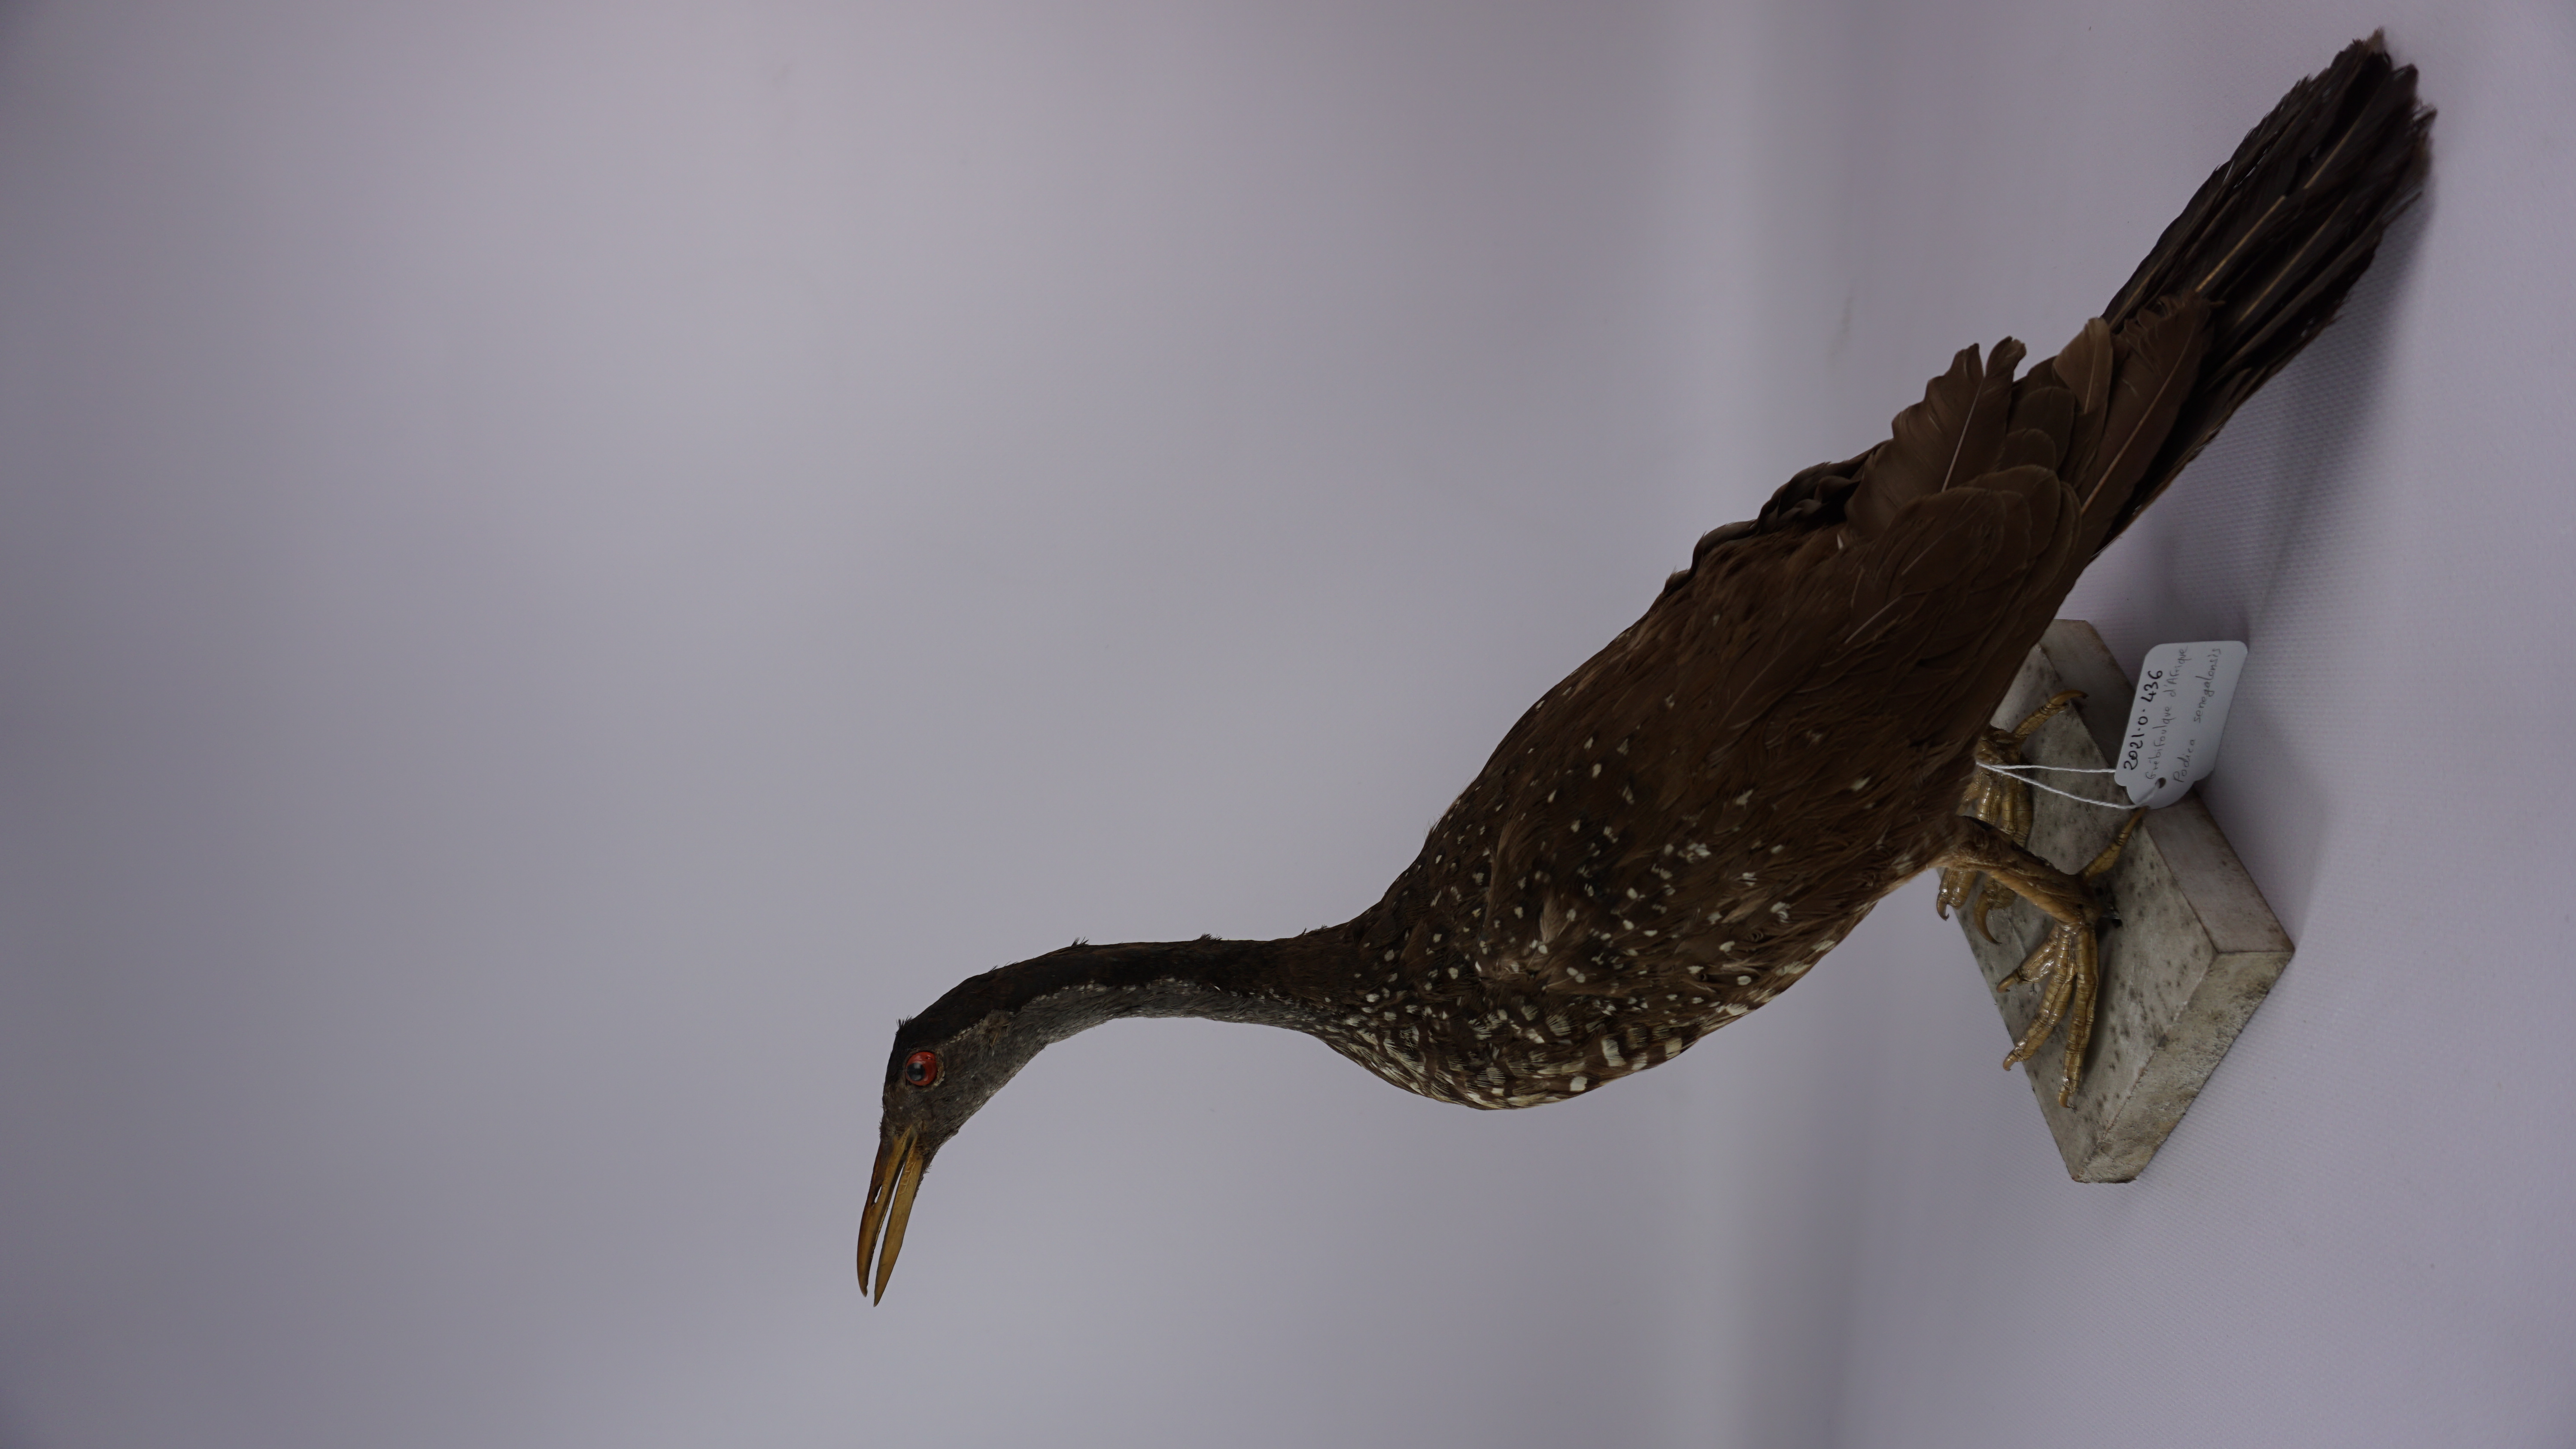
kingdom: Animalia
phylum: Chordata
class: Aves
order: Gruiformes
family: Heliornithidae
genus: Podica
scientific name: Podica senegalensis
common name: African finfoot
